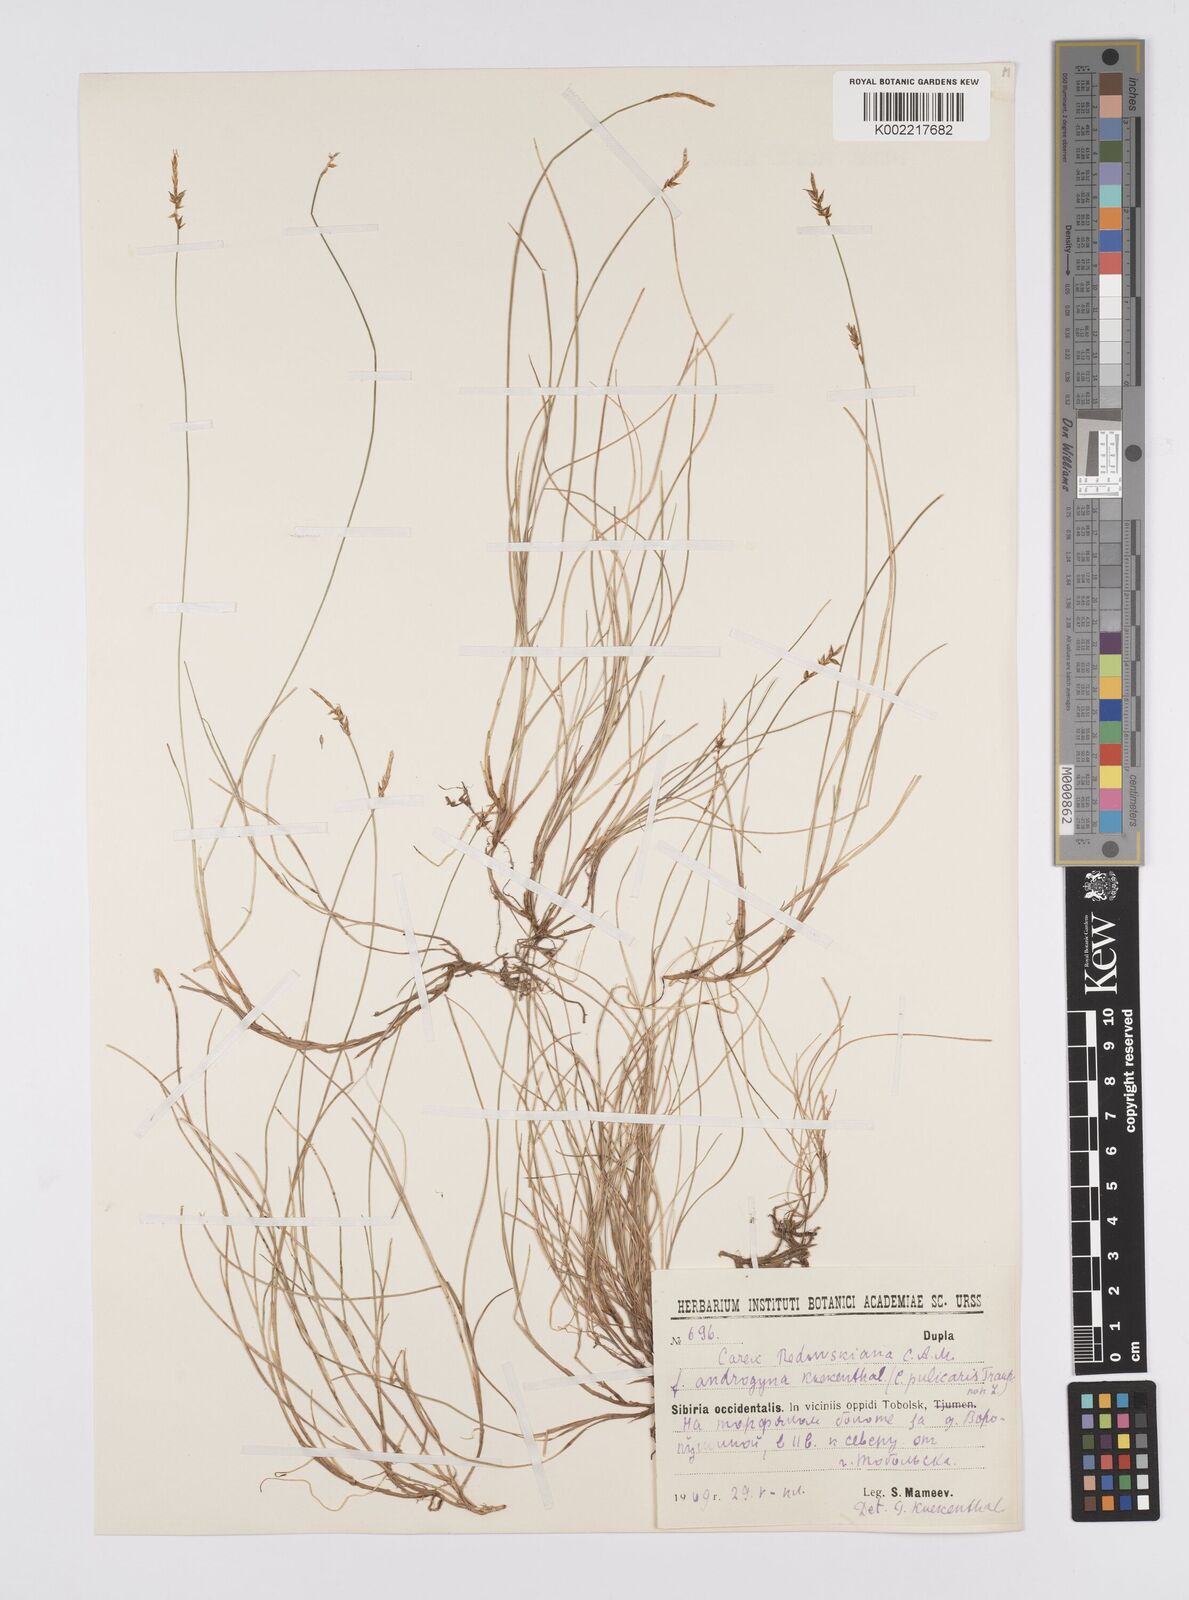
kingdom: Plantae
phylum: Tracheophyta
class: Liliopsida
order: Poales
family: Cyperaceae
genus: Carex
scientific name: Carex parallela
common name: Parallel sedge
